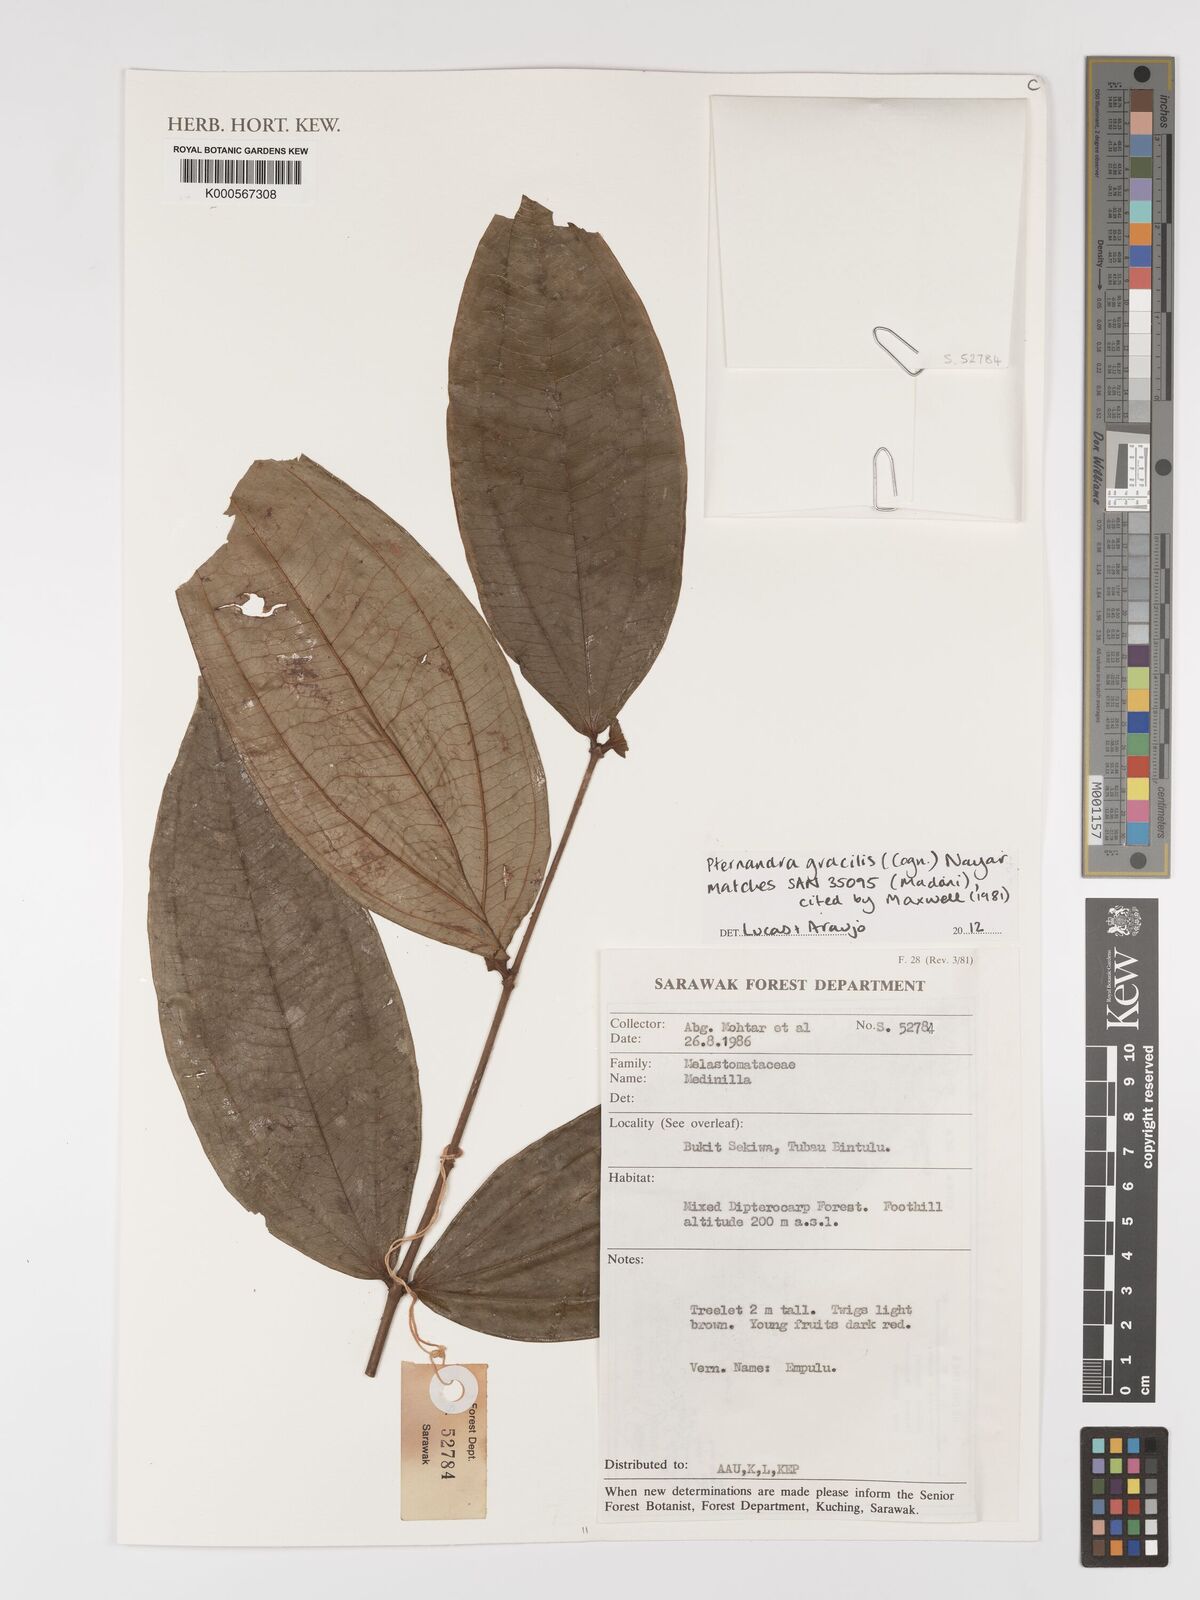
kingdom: Plantae
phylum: Tracheophyta
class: Magnoliopsida
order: Myrtales
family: Melastomataceae
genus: Pternandra
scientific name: Pternandra gracilis
